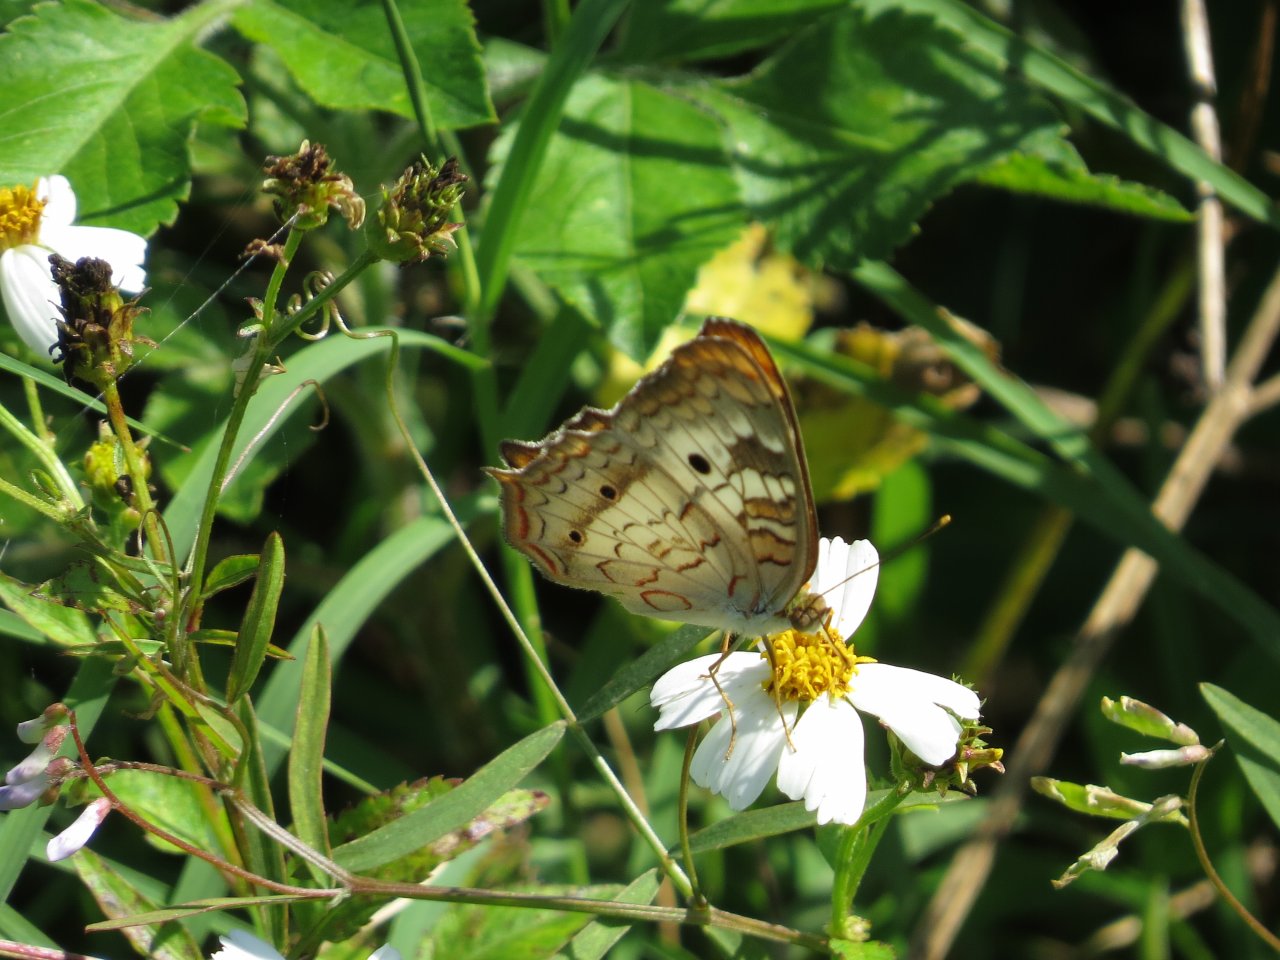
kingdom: Animalia
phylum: Arthropoda
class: Insecta
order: Lepidoptera
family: Nymphalidae
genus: Anartia
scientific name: Anartia jatrophae
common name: White Peacock
